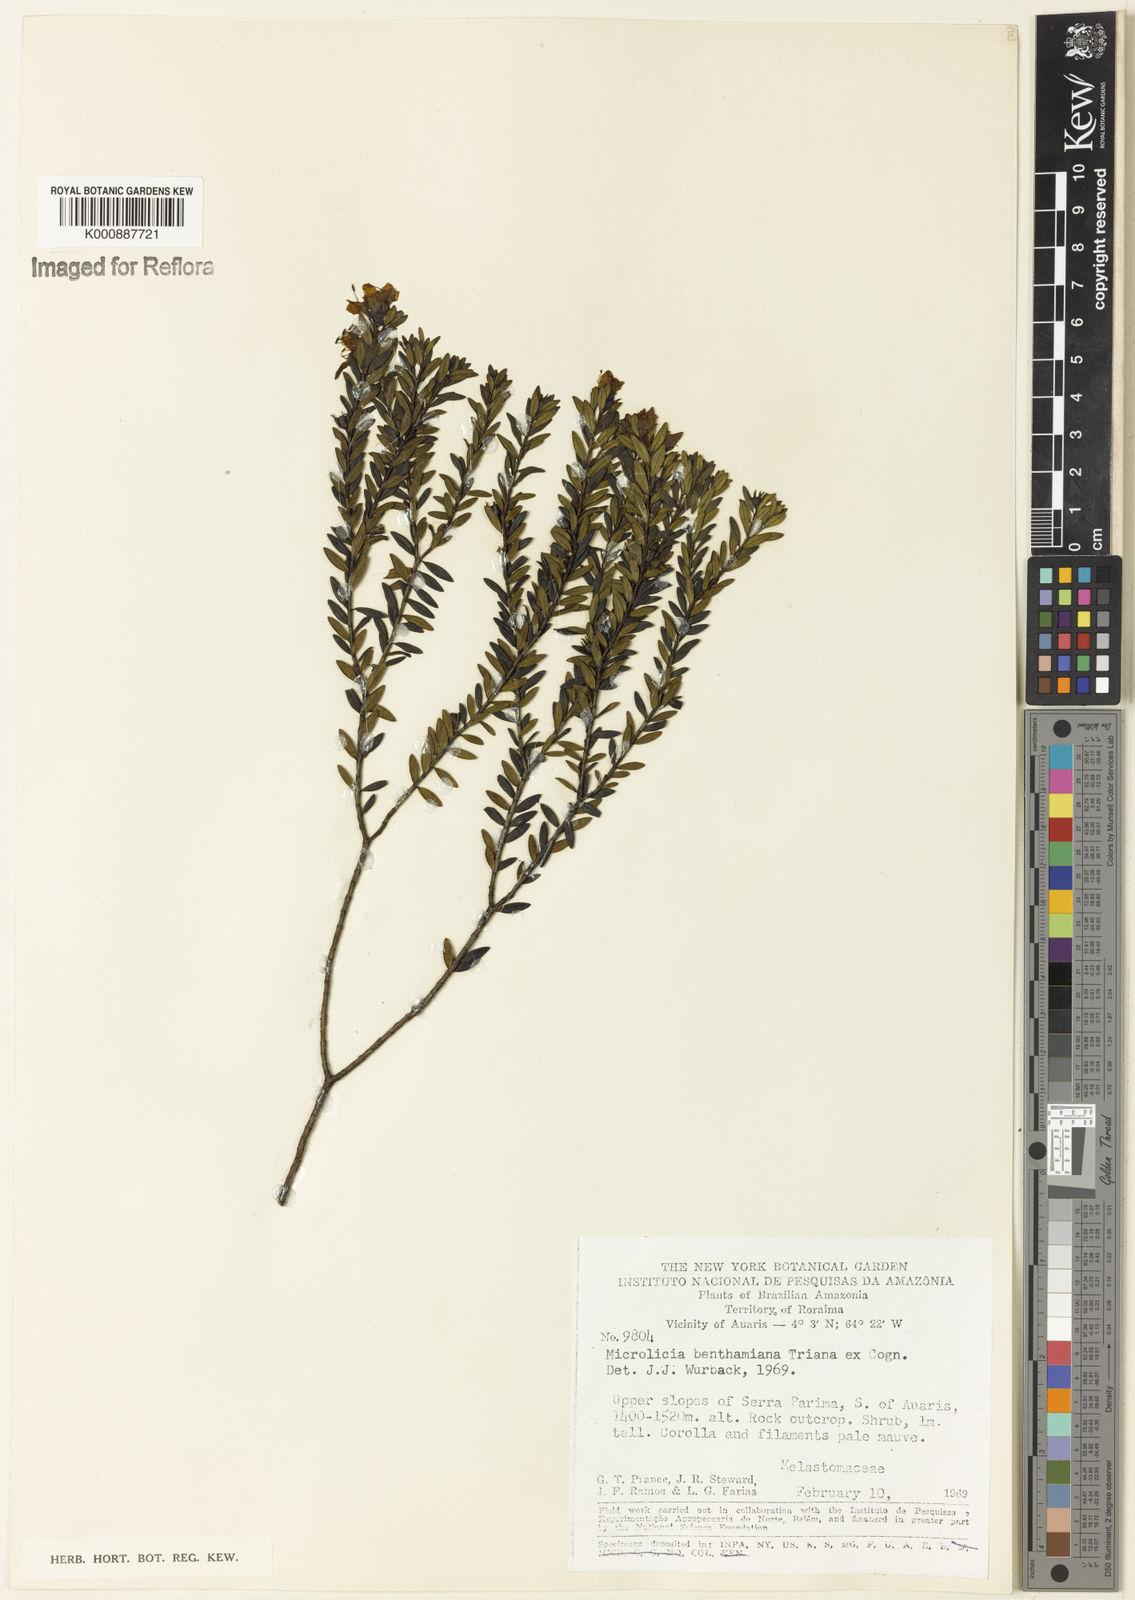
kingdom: Plantae
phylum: Tracheophyta
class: Magnoliopsida
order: Myrtales
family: Melastomataceae
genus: Microlicia
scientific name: Microlicia benthamiana
